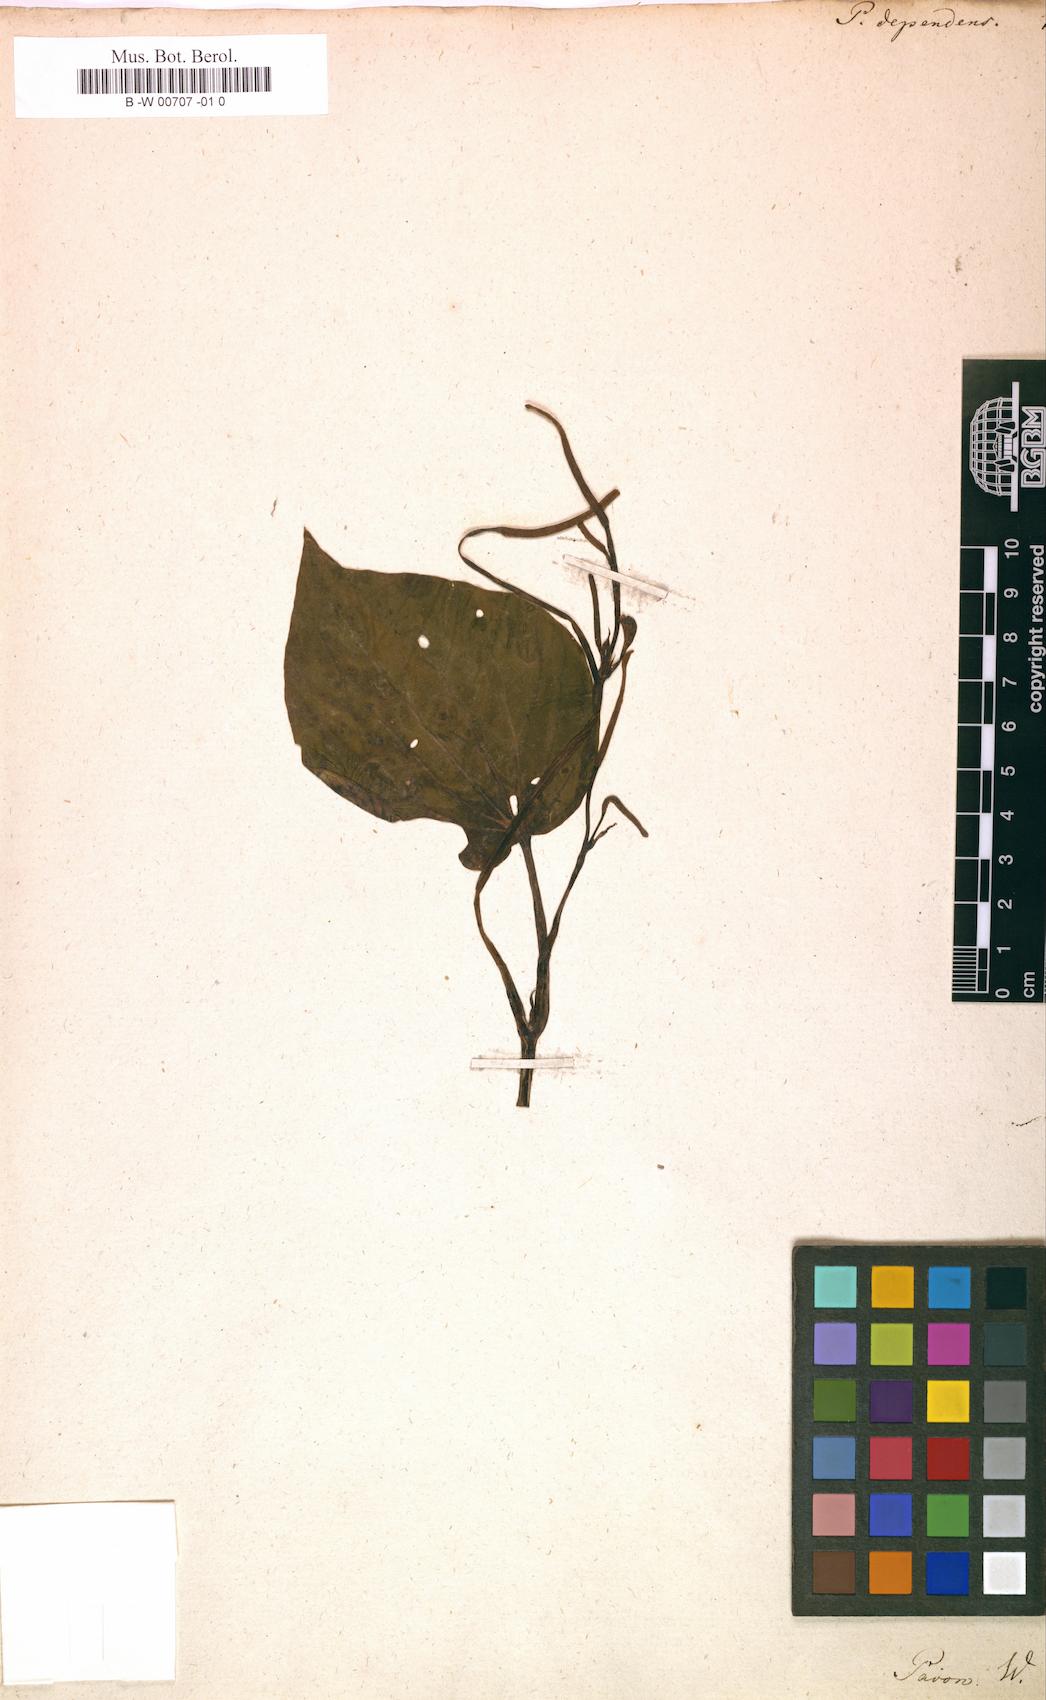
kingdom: Plantae
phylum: Tracheophyta
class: Magnoliopsida
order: Piperales
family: Piperaceae
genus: Peperomia
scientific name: Peperomia dependens
